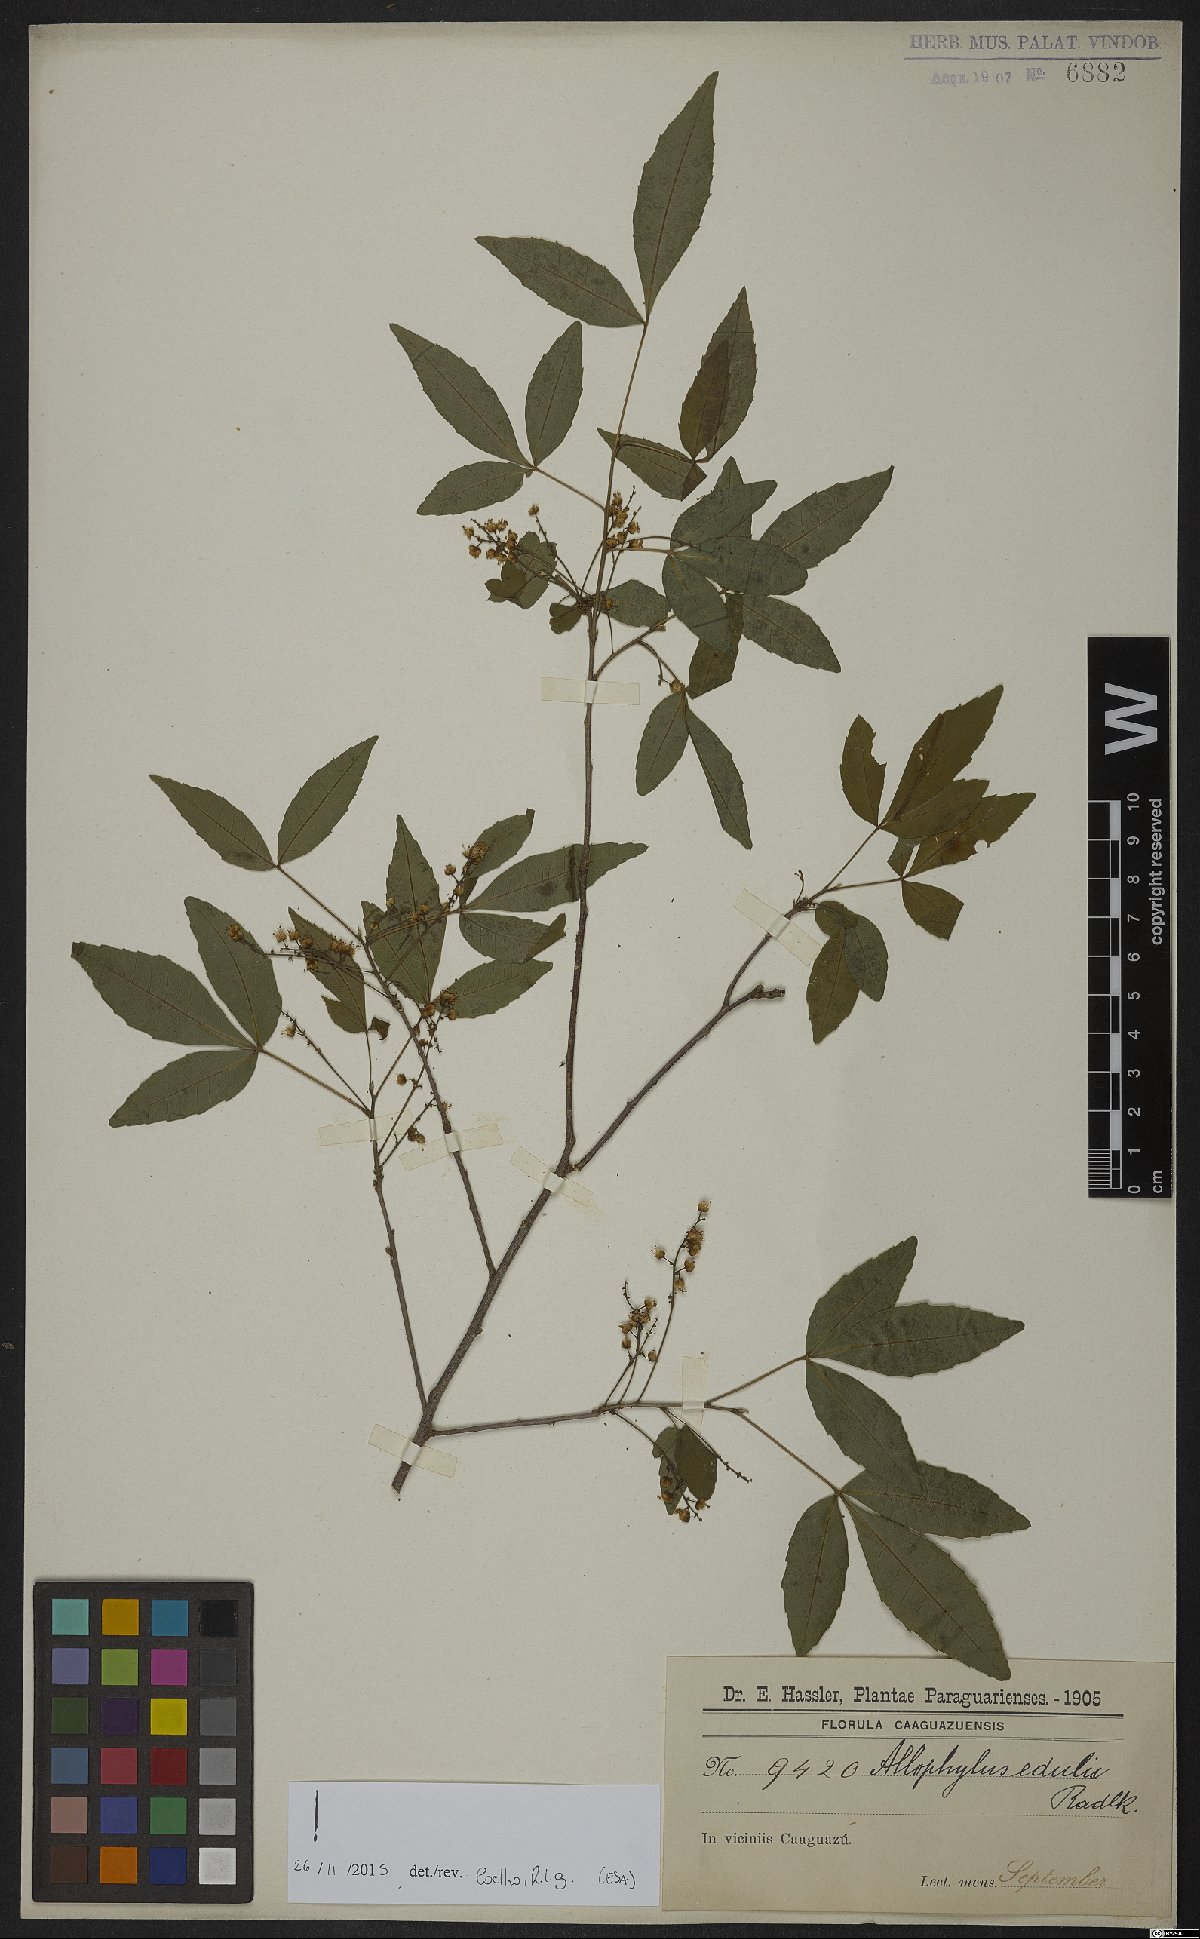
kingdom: Plantae
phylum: Tracheophyta
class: Magnoliopsida
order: Sapindales
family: Sapindaceae
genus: Allophylus
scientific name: Allophylus edulis
